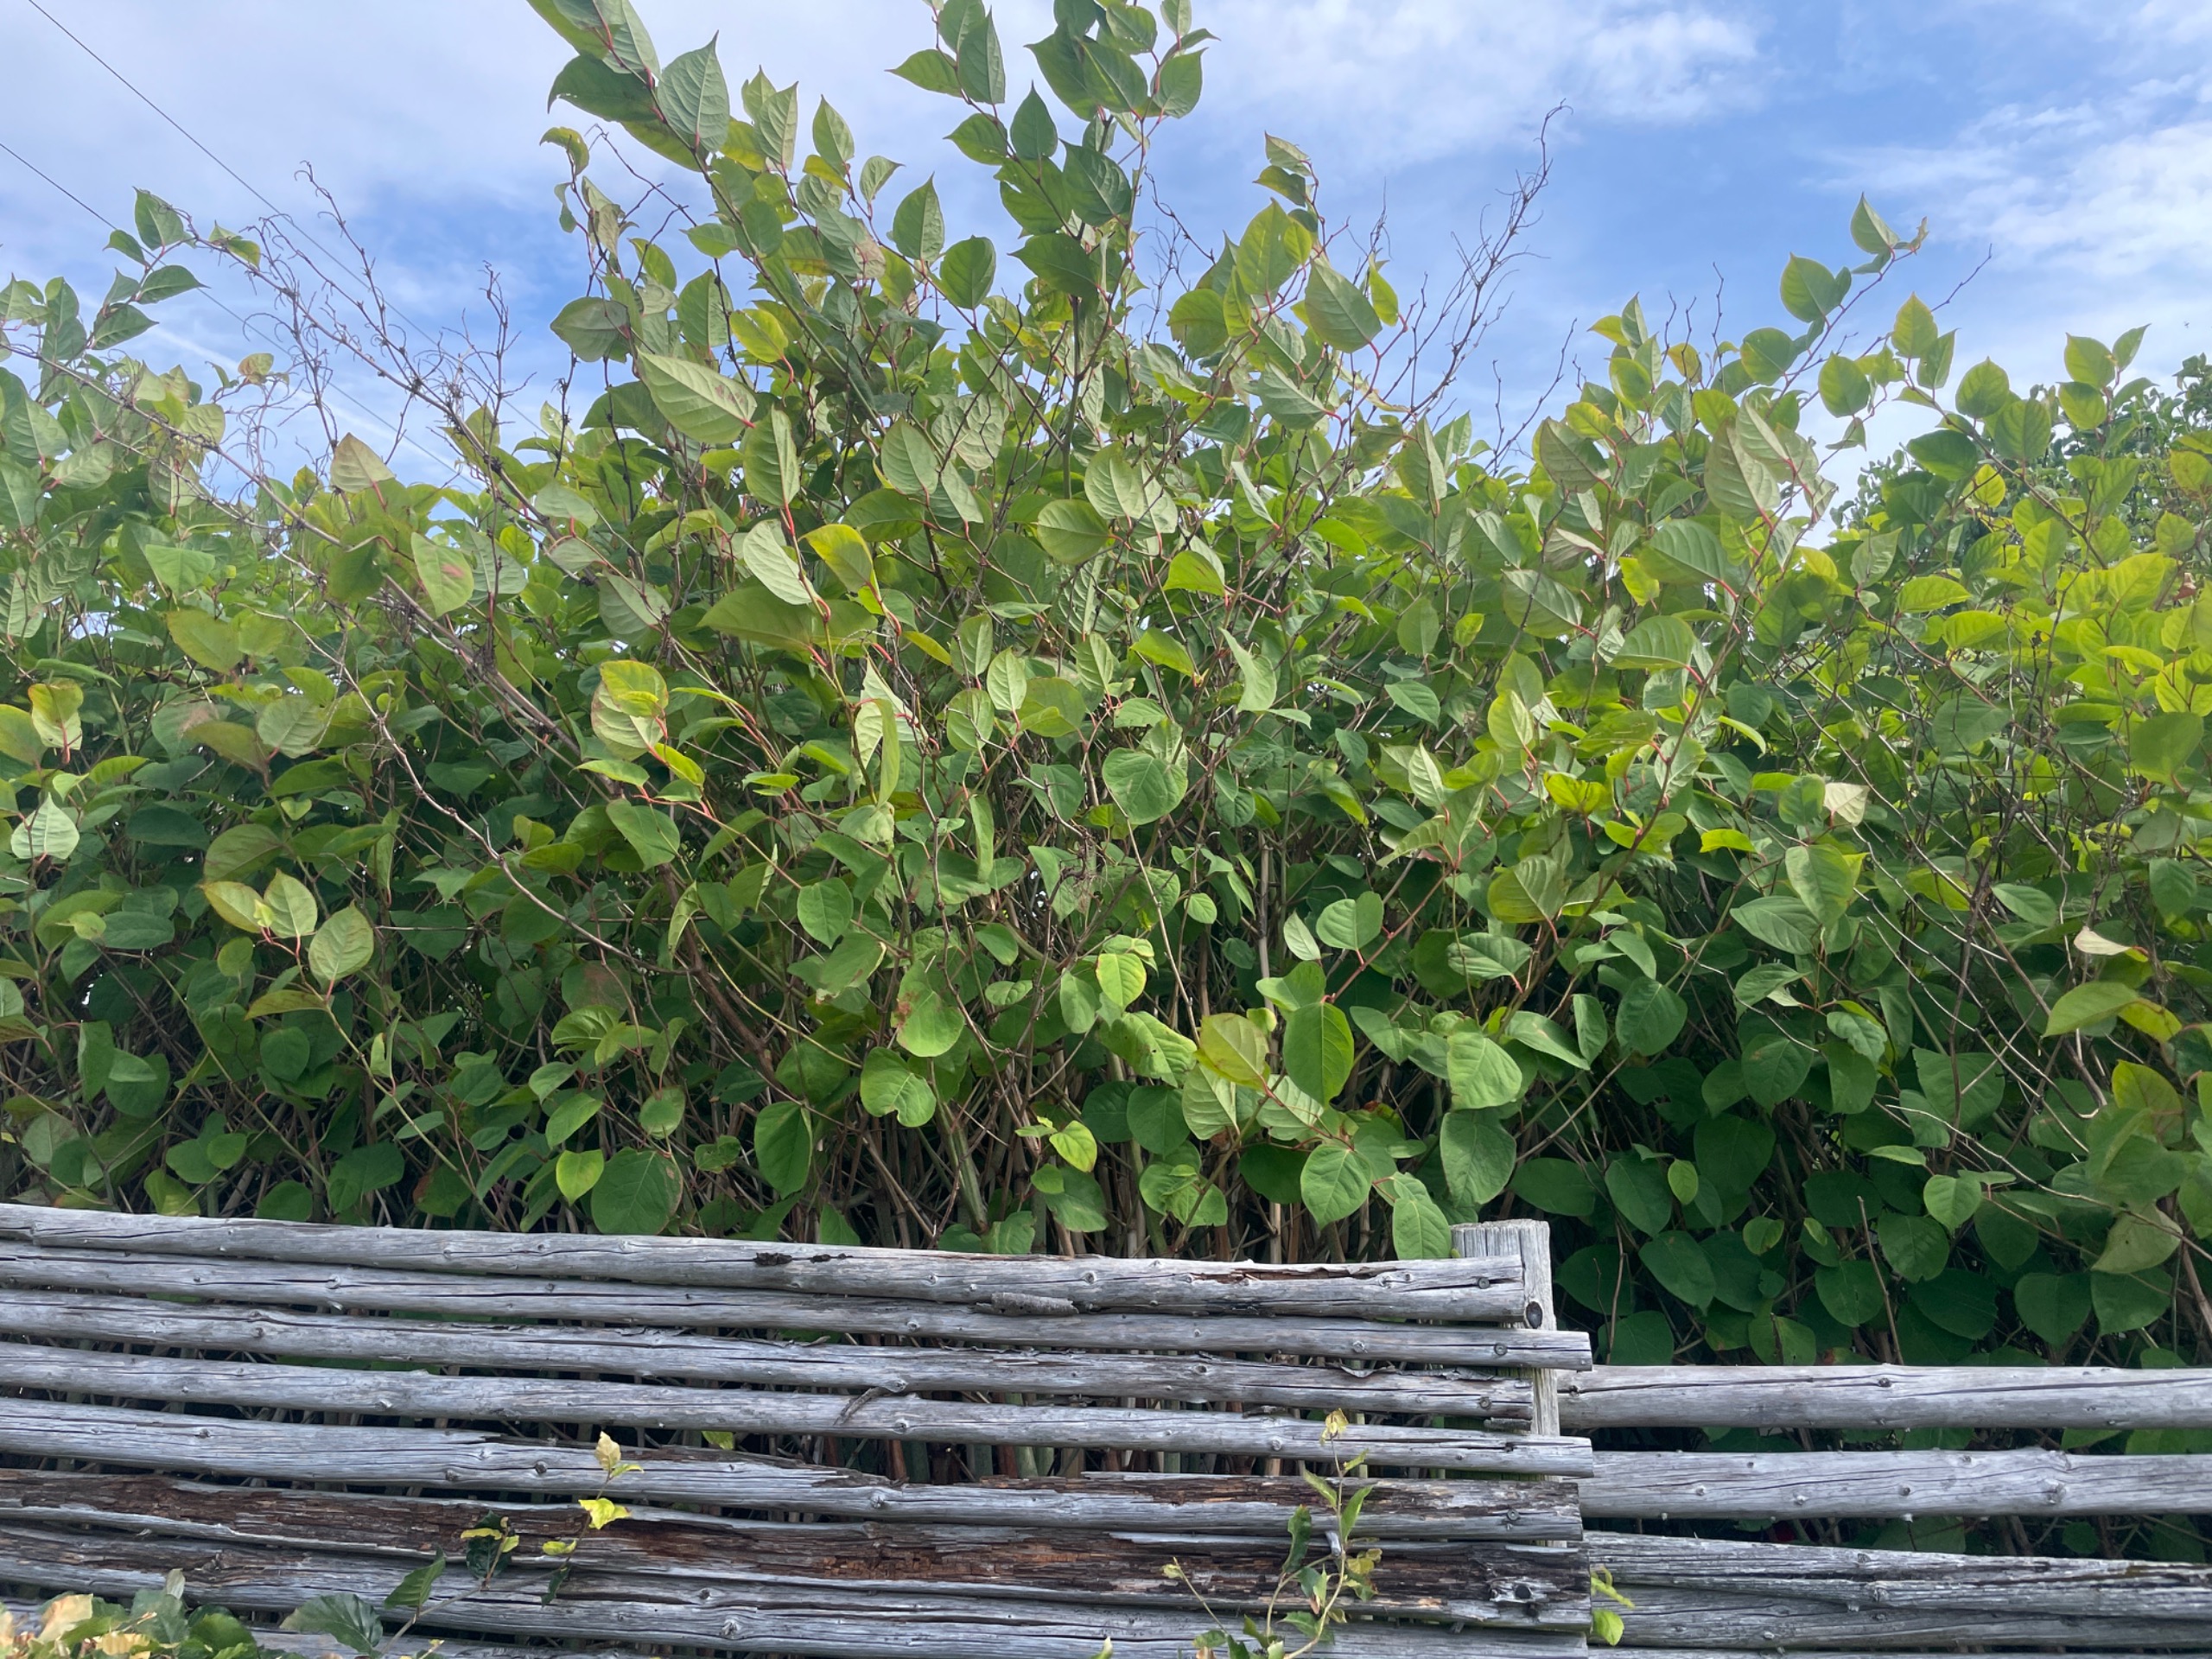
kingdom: Plantae
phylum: Tracheophyta
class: Magnoliopsida
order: Caryophyllales
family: Polygonaceae
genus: Reynoutria
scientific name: Reynoutria japonica
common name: Japan-pileurt
